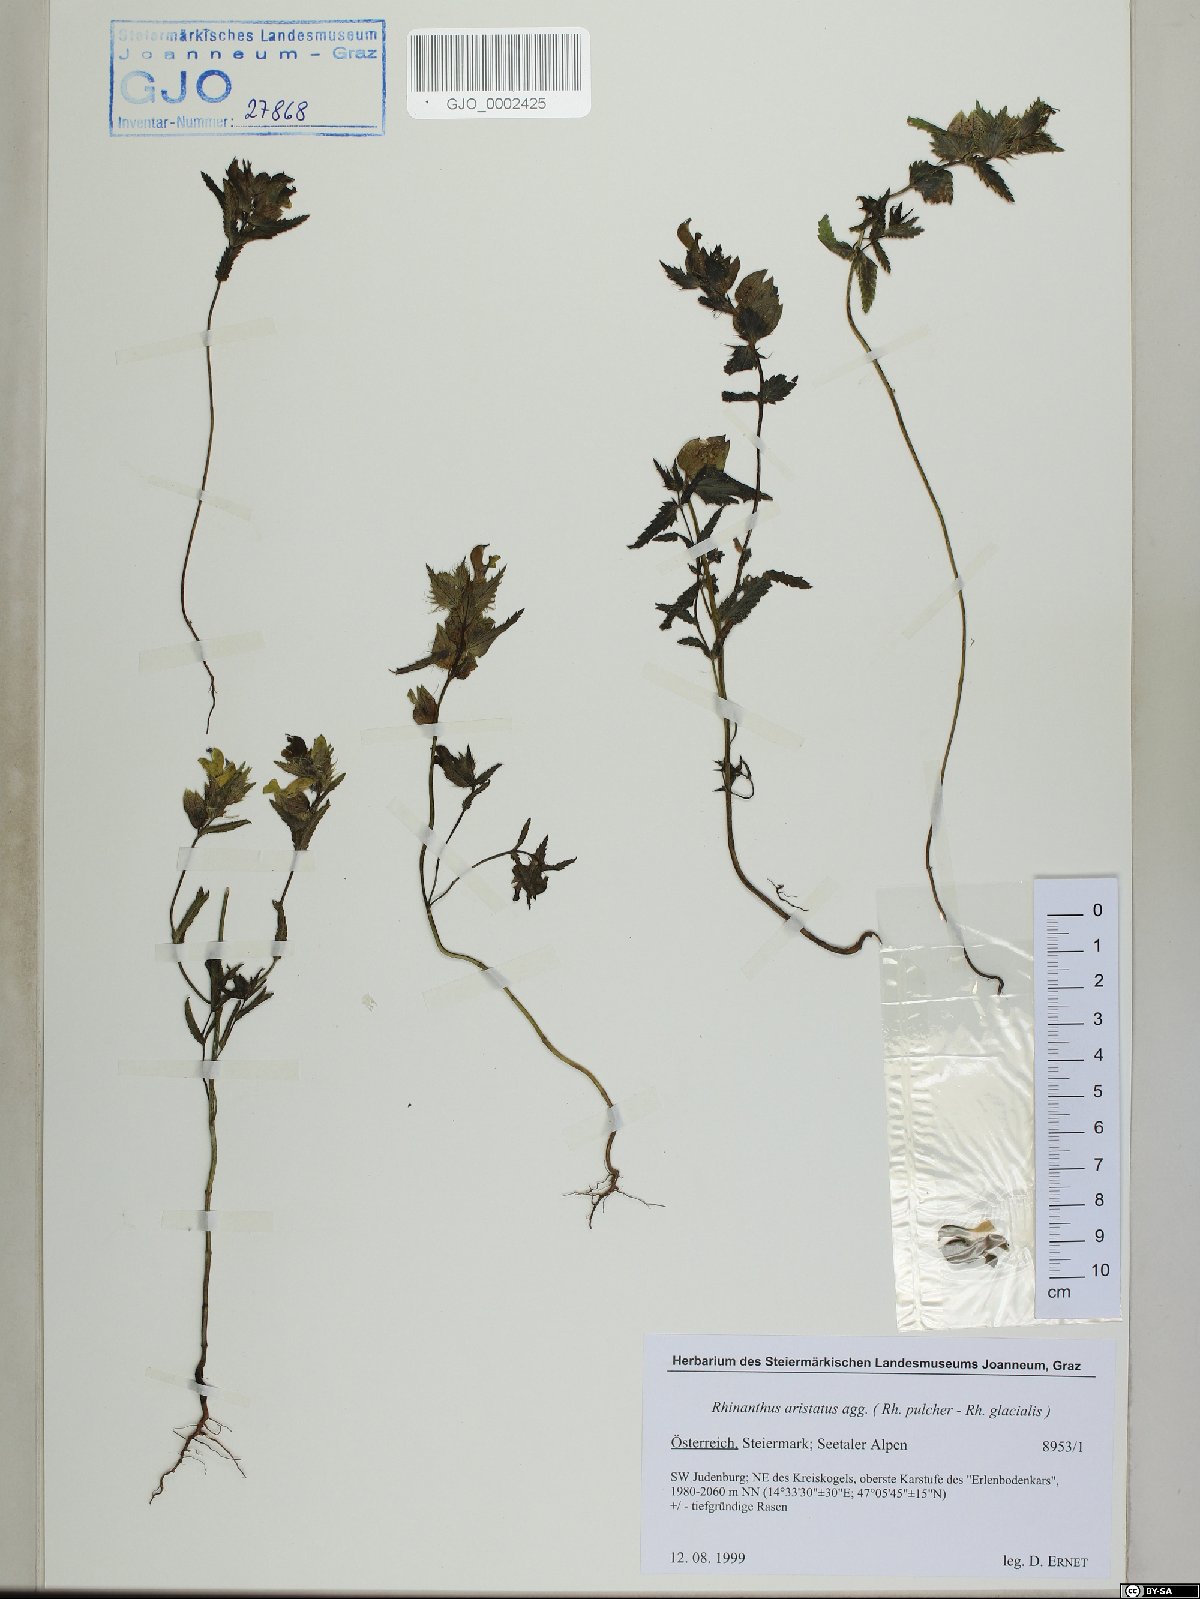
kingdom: Plantae
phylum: Tracheophyta
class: Magnoliopsida
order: Lamiales
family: Orobanchaceae
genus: Rhinanthus
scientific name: Rhinanthus glacialis
